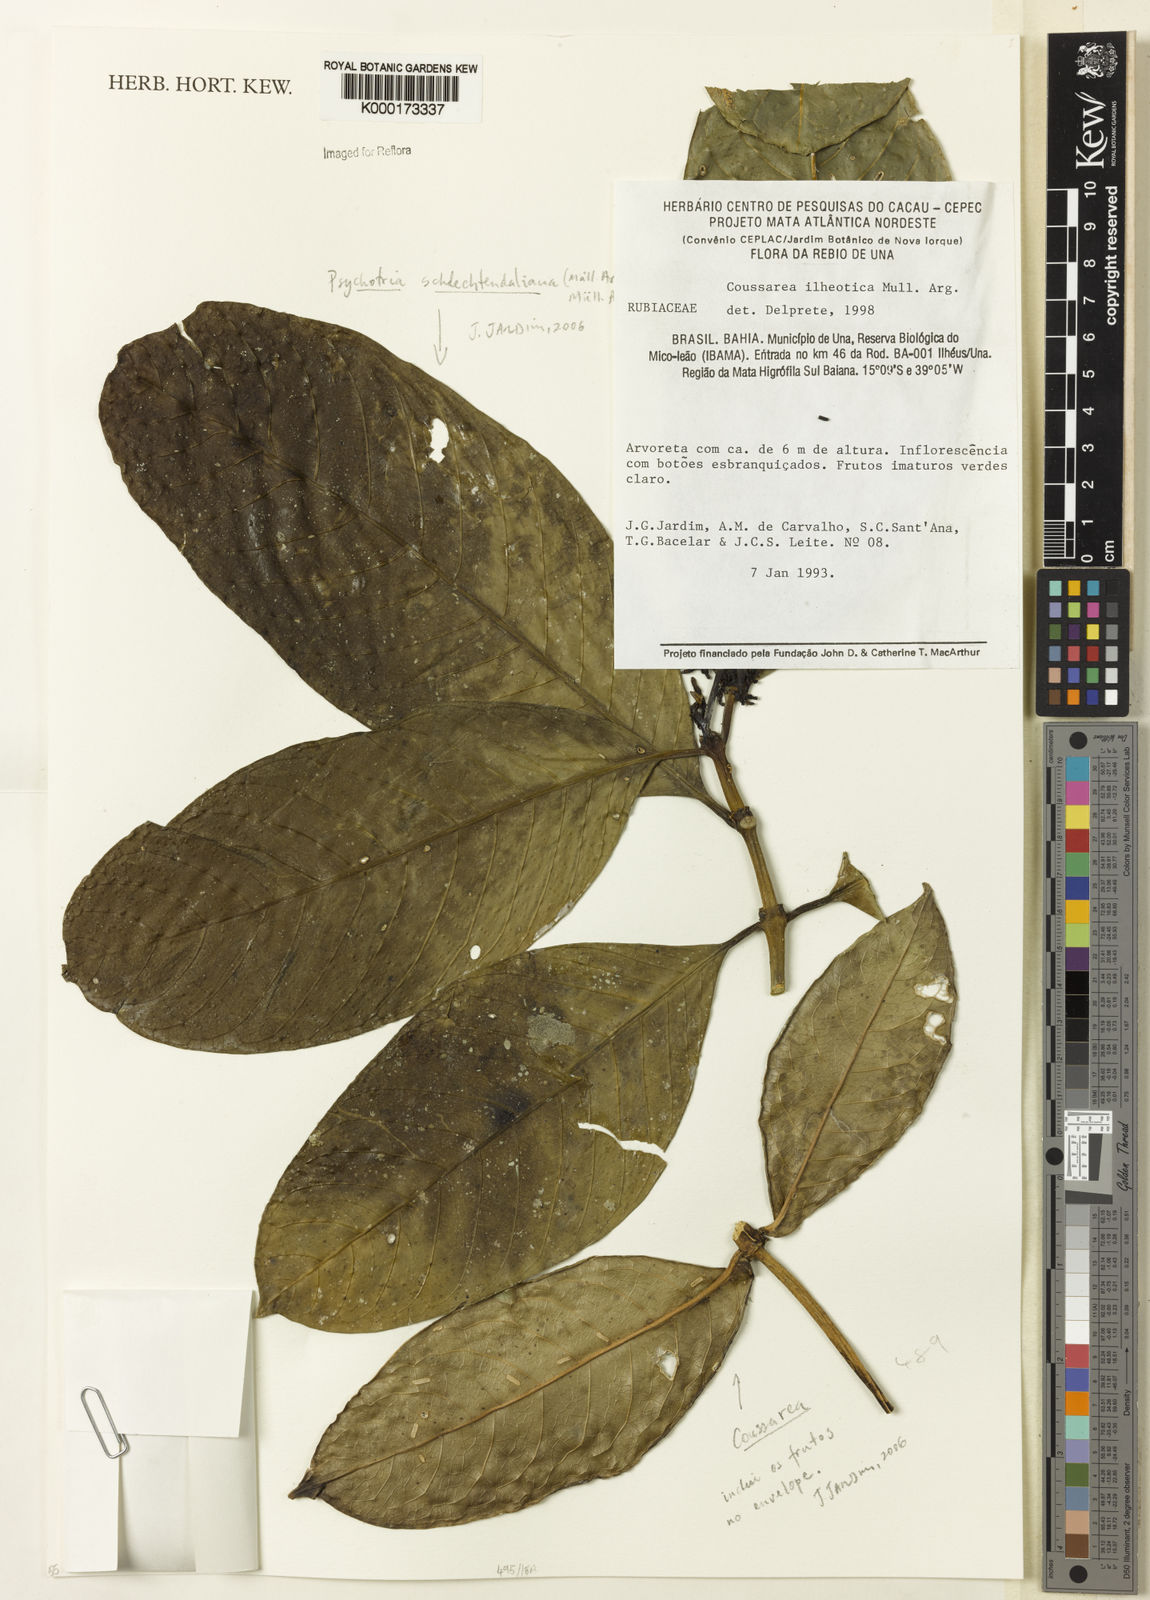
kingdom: Plantae
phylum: Tracheophyta
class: Magnoliopsida
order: Gentianales
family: Rubiaceae
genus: Psychotria
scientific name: Psychotria
